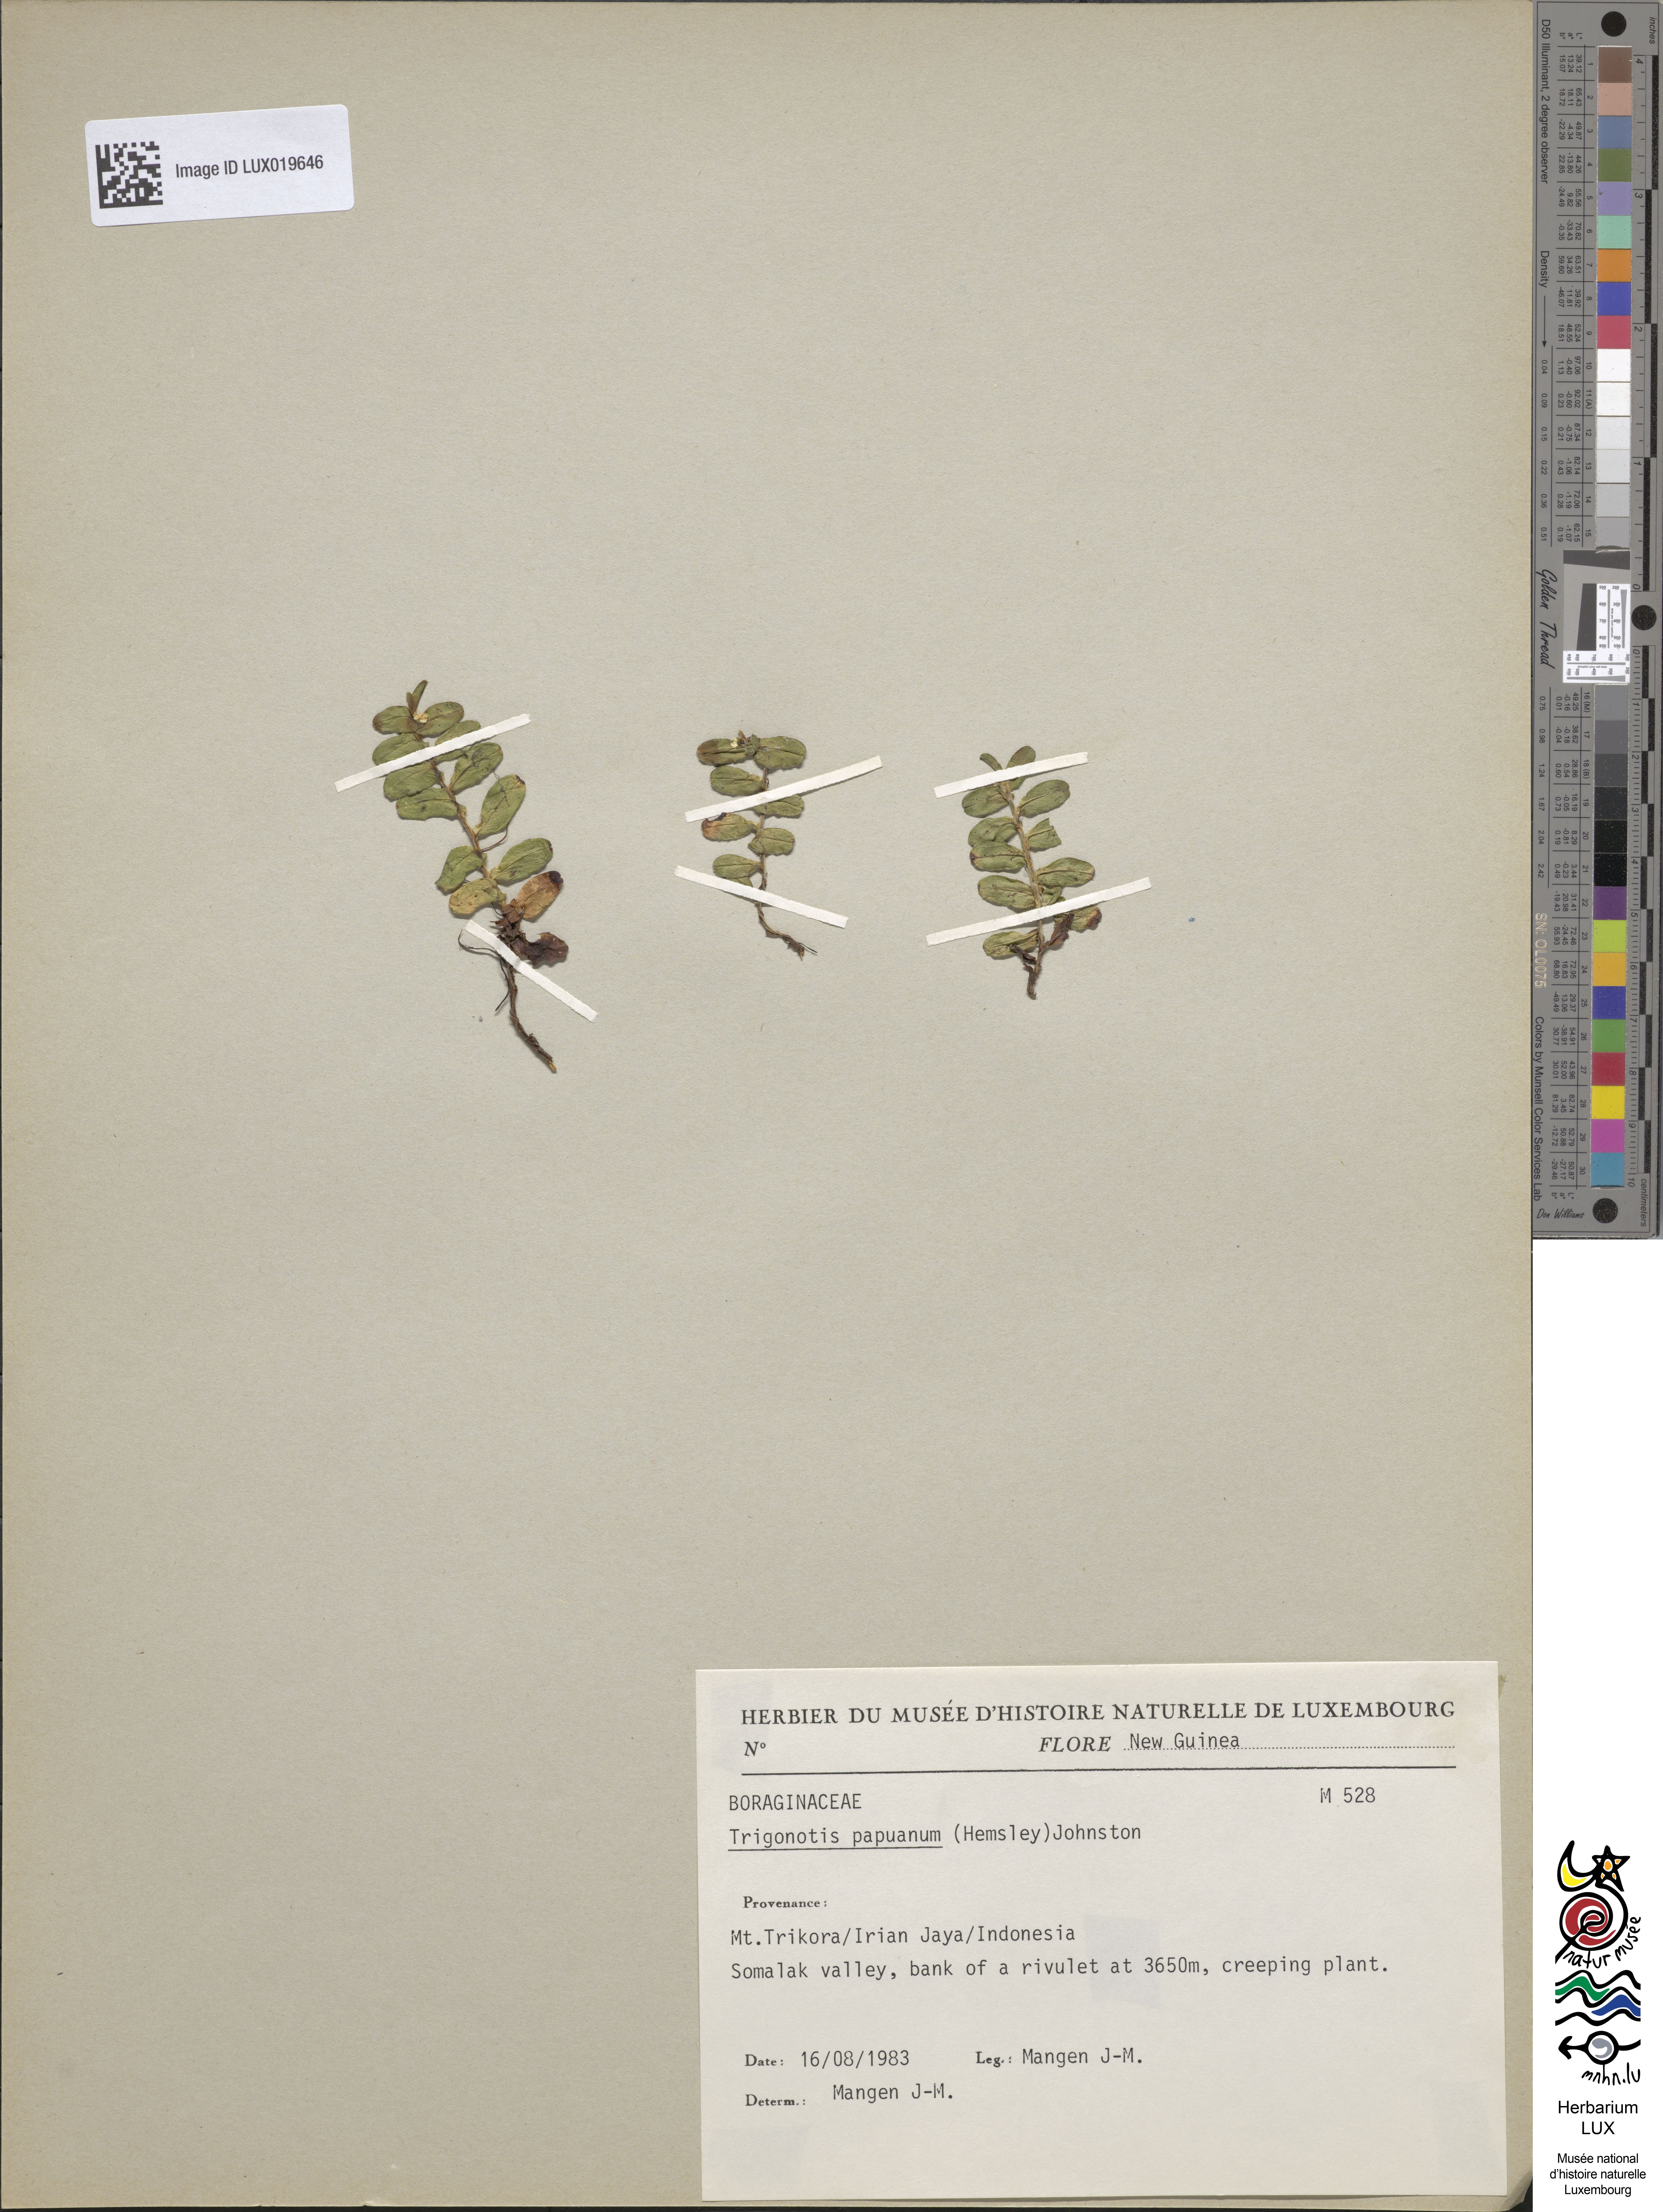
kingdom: Plantae
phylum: Tracheophyta
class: Magnoliopsida
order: Boraginales
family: Boraginaceae
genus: Trigonotis
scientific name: Trigonotis papuana
